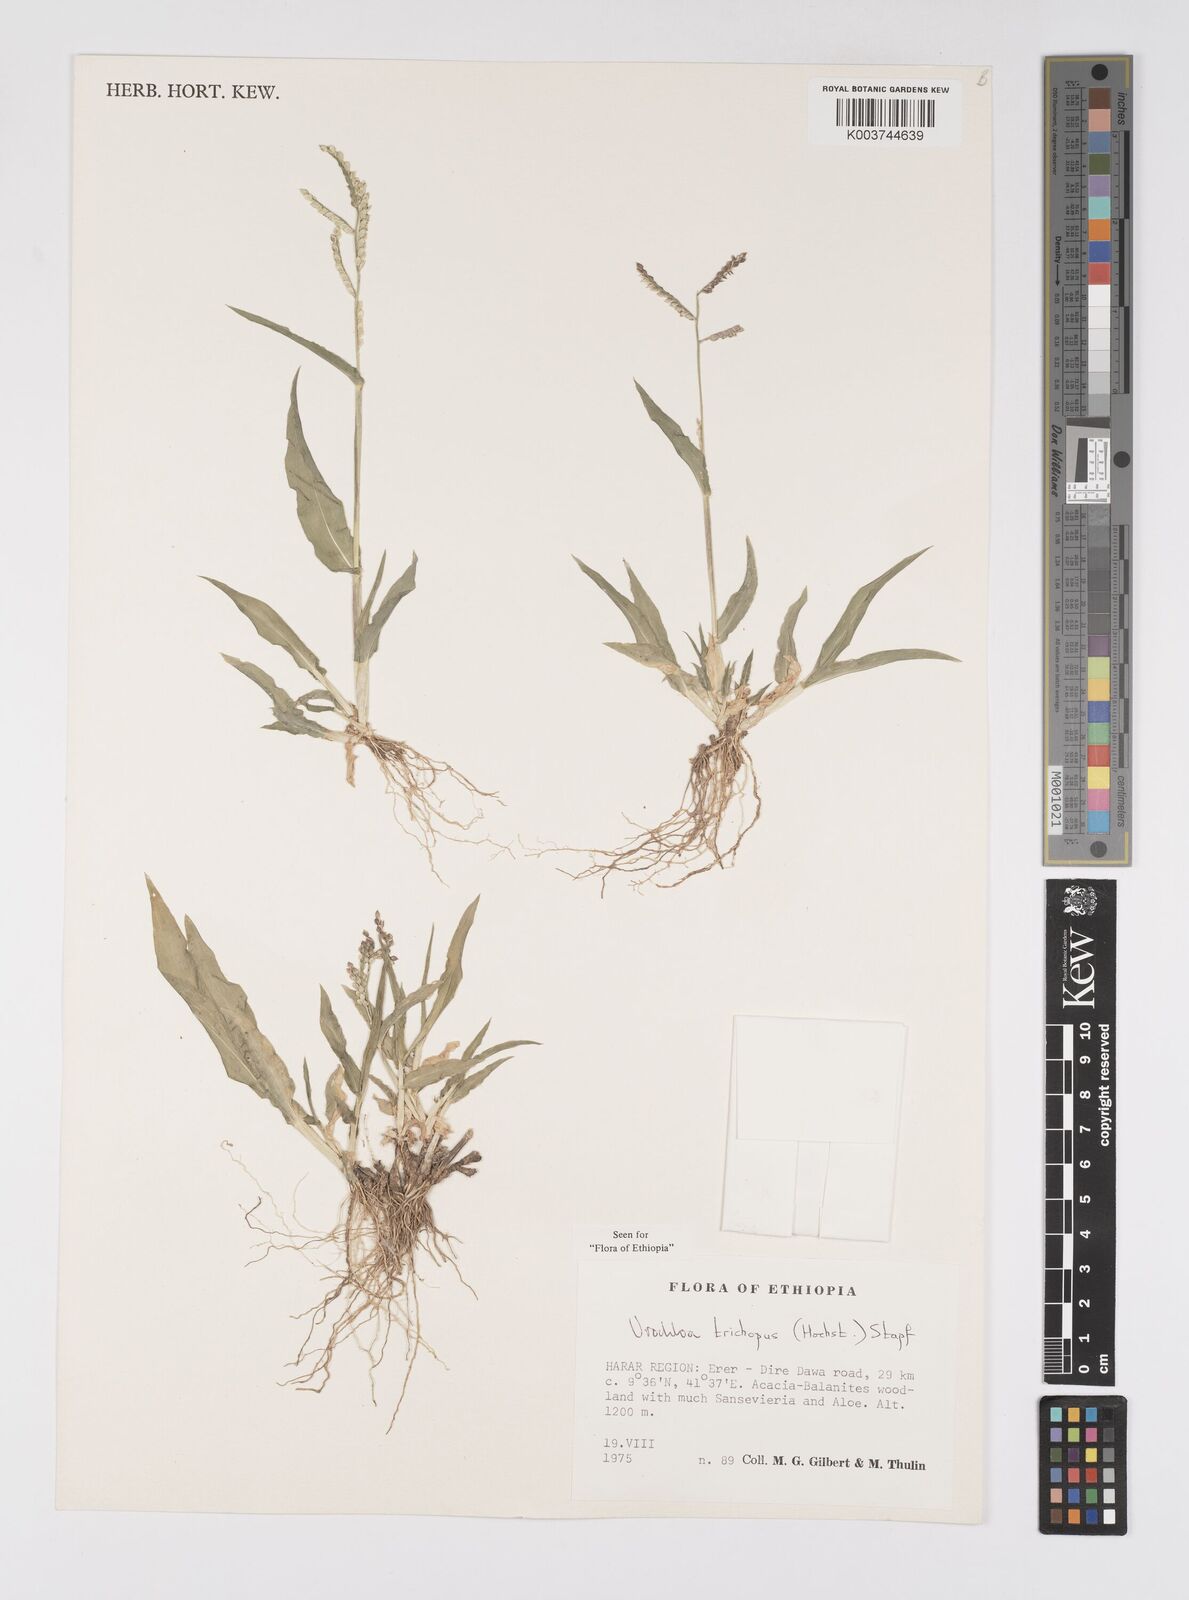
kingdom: Plantae
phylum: Tracheophyta
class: Liliopsida
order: Poales
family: Poaceae
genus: Urochloa
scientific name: Urochloa trichopus
